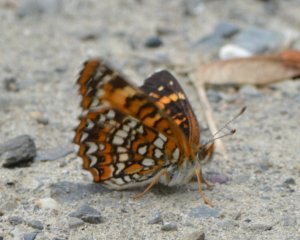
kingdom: Animalia
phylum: Arthropoda
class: Insecta
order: Lepidoptera
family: Nymphalidae
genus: Chlosyne
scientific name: Chlosyne harrisii
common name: Harris's Checkerspot
